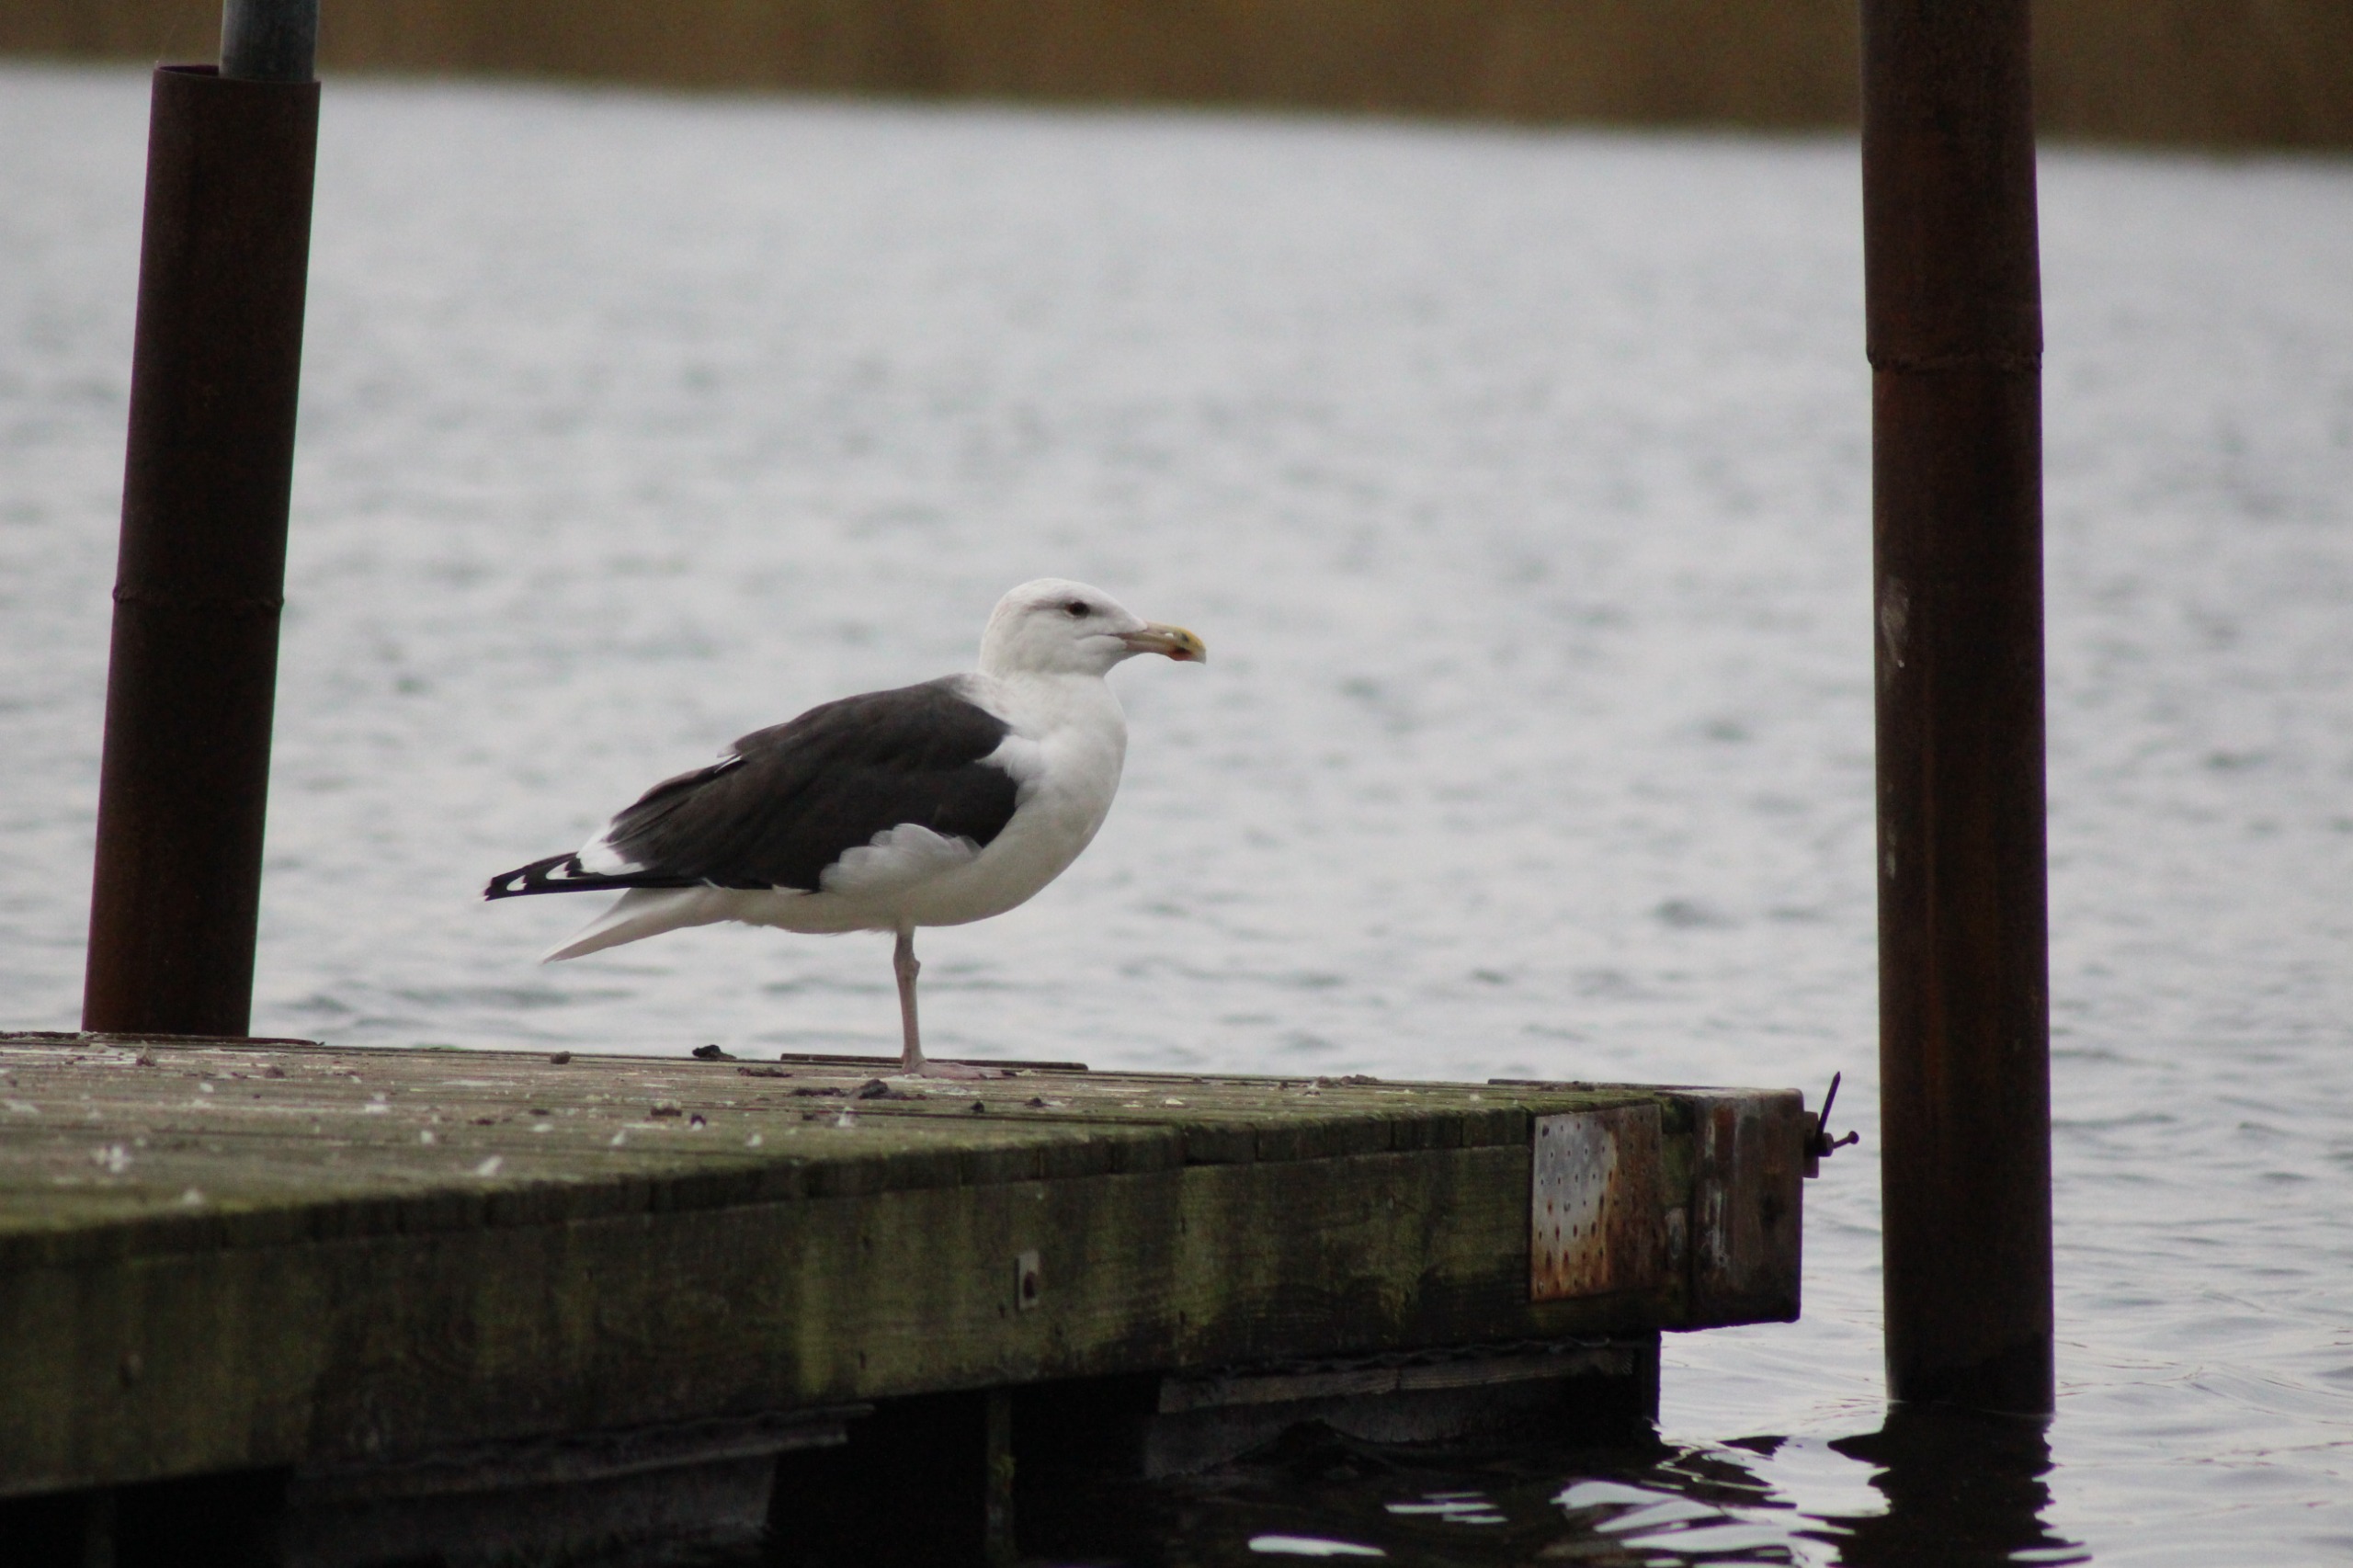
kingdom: Animalia
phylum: Chordata
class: Aves
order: Charadriiformes
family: Laridae
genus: Larus
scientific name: Larus marinus
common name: Svartbag
